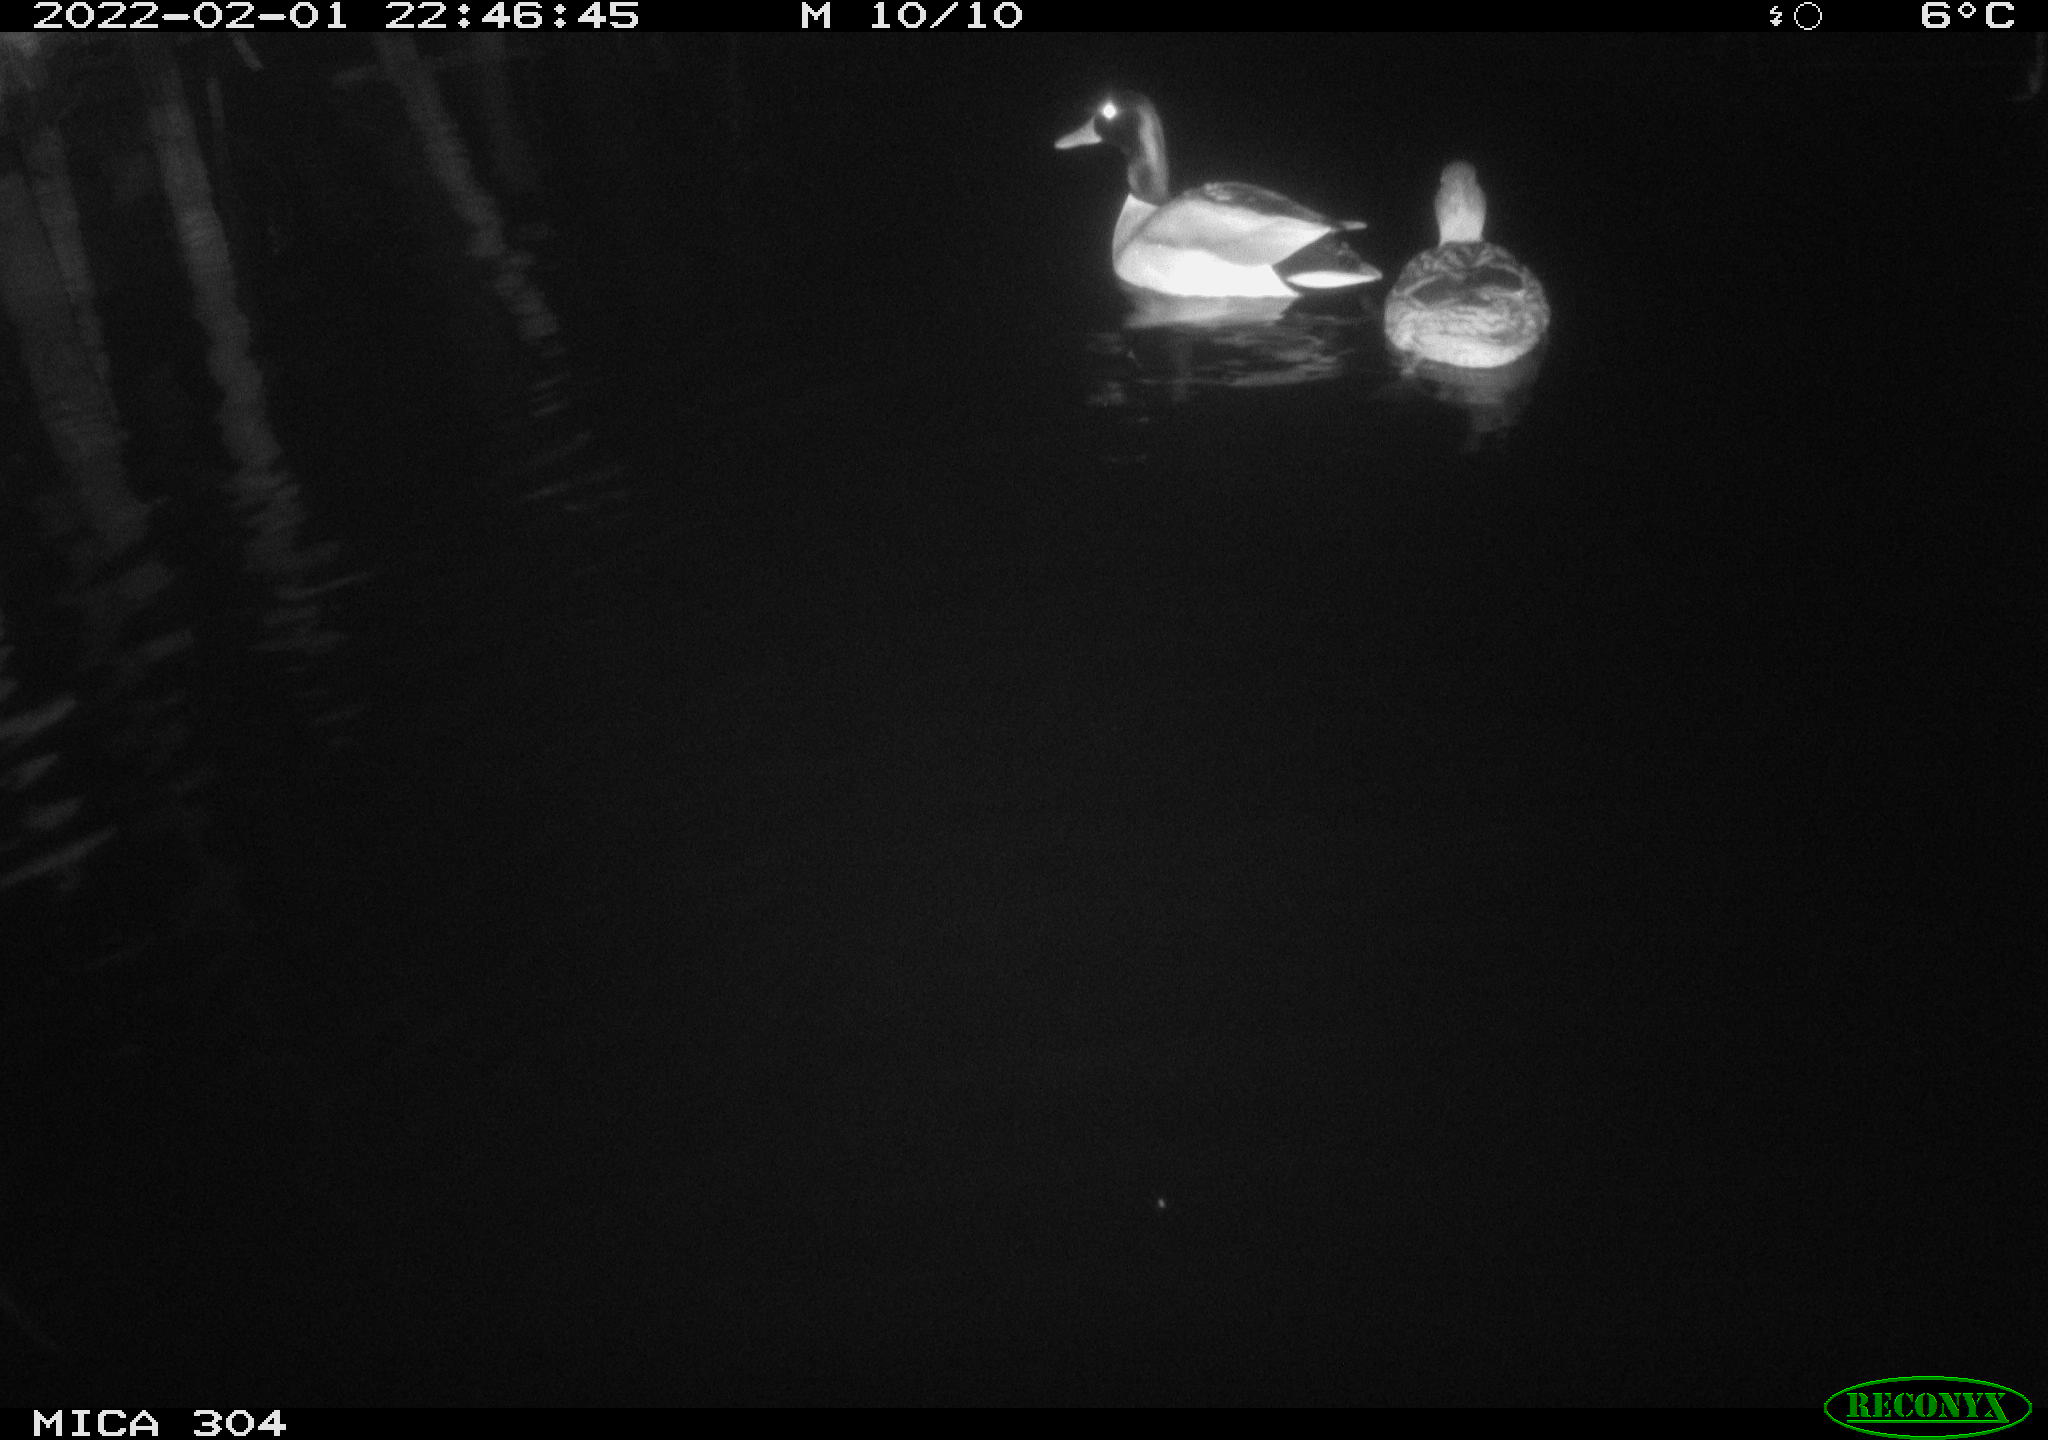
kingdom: Animalia
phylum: Chordata
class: Aves
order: Anseriformes
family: Anatidae
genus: Anas
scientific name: Anas
